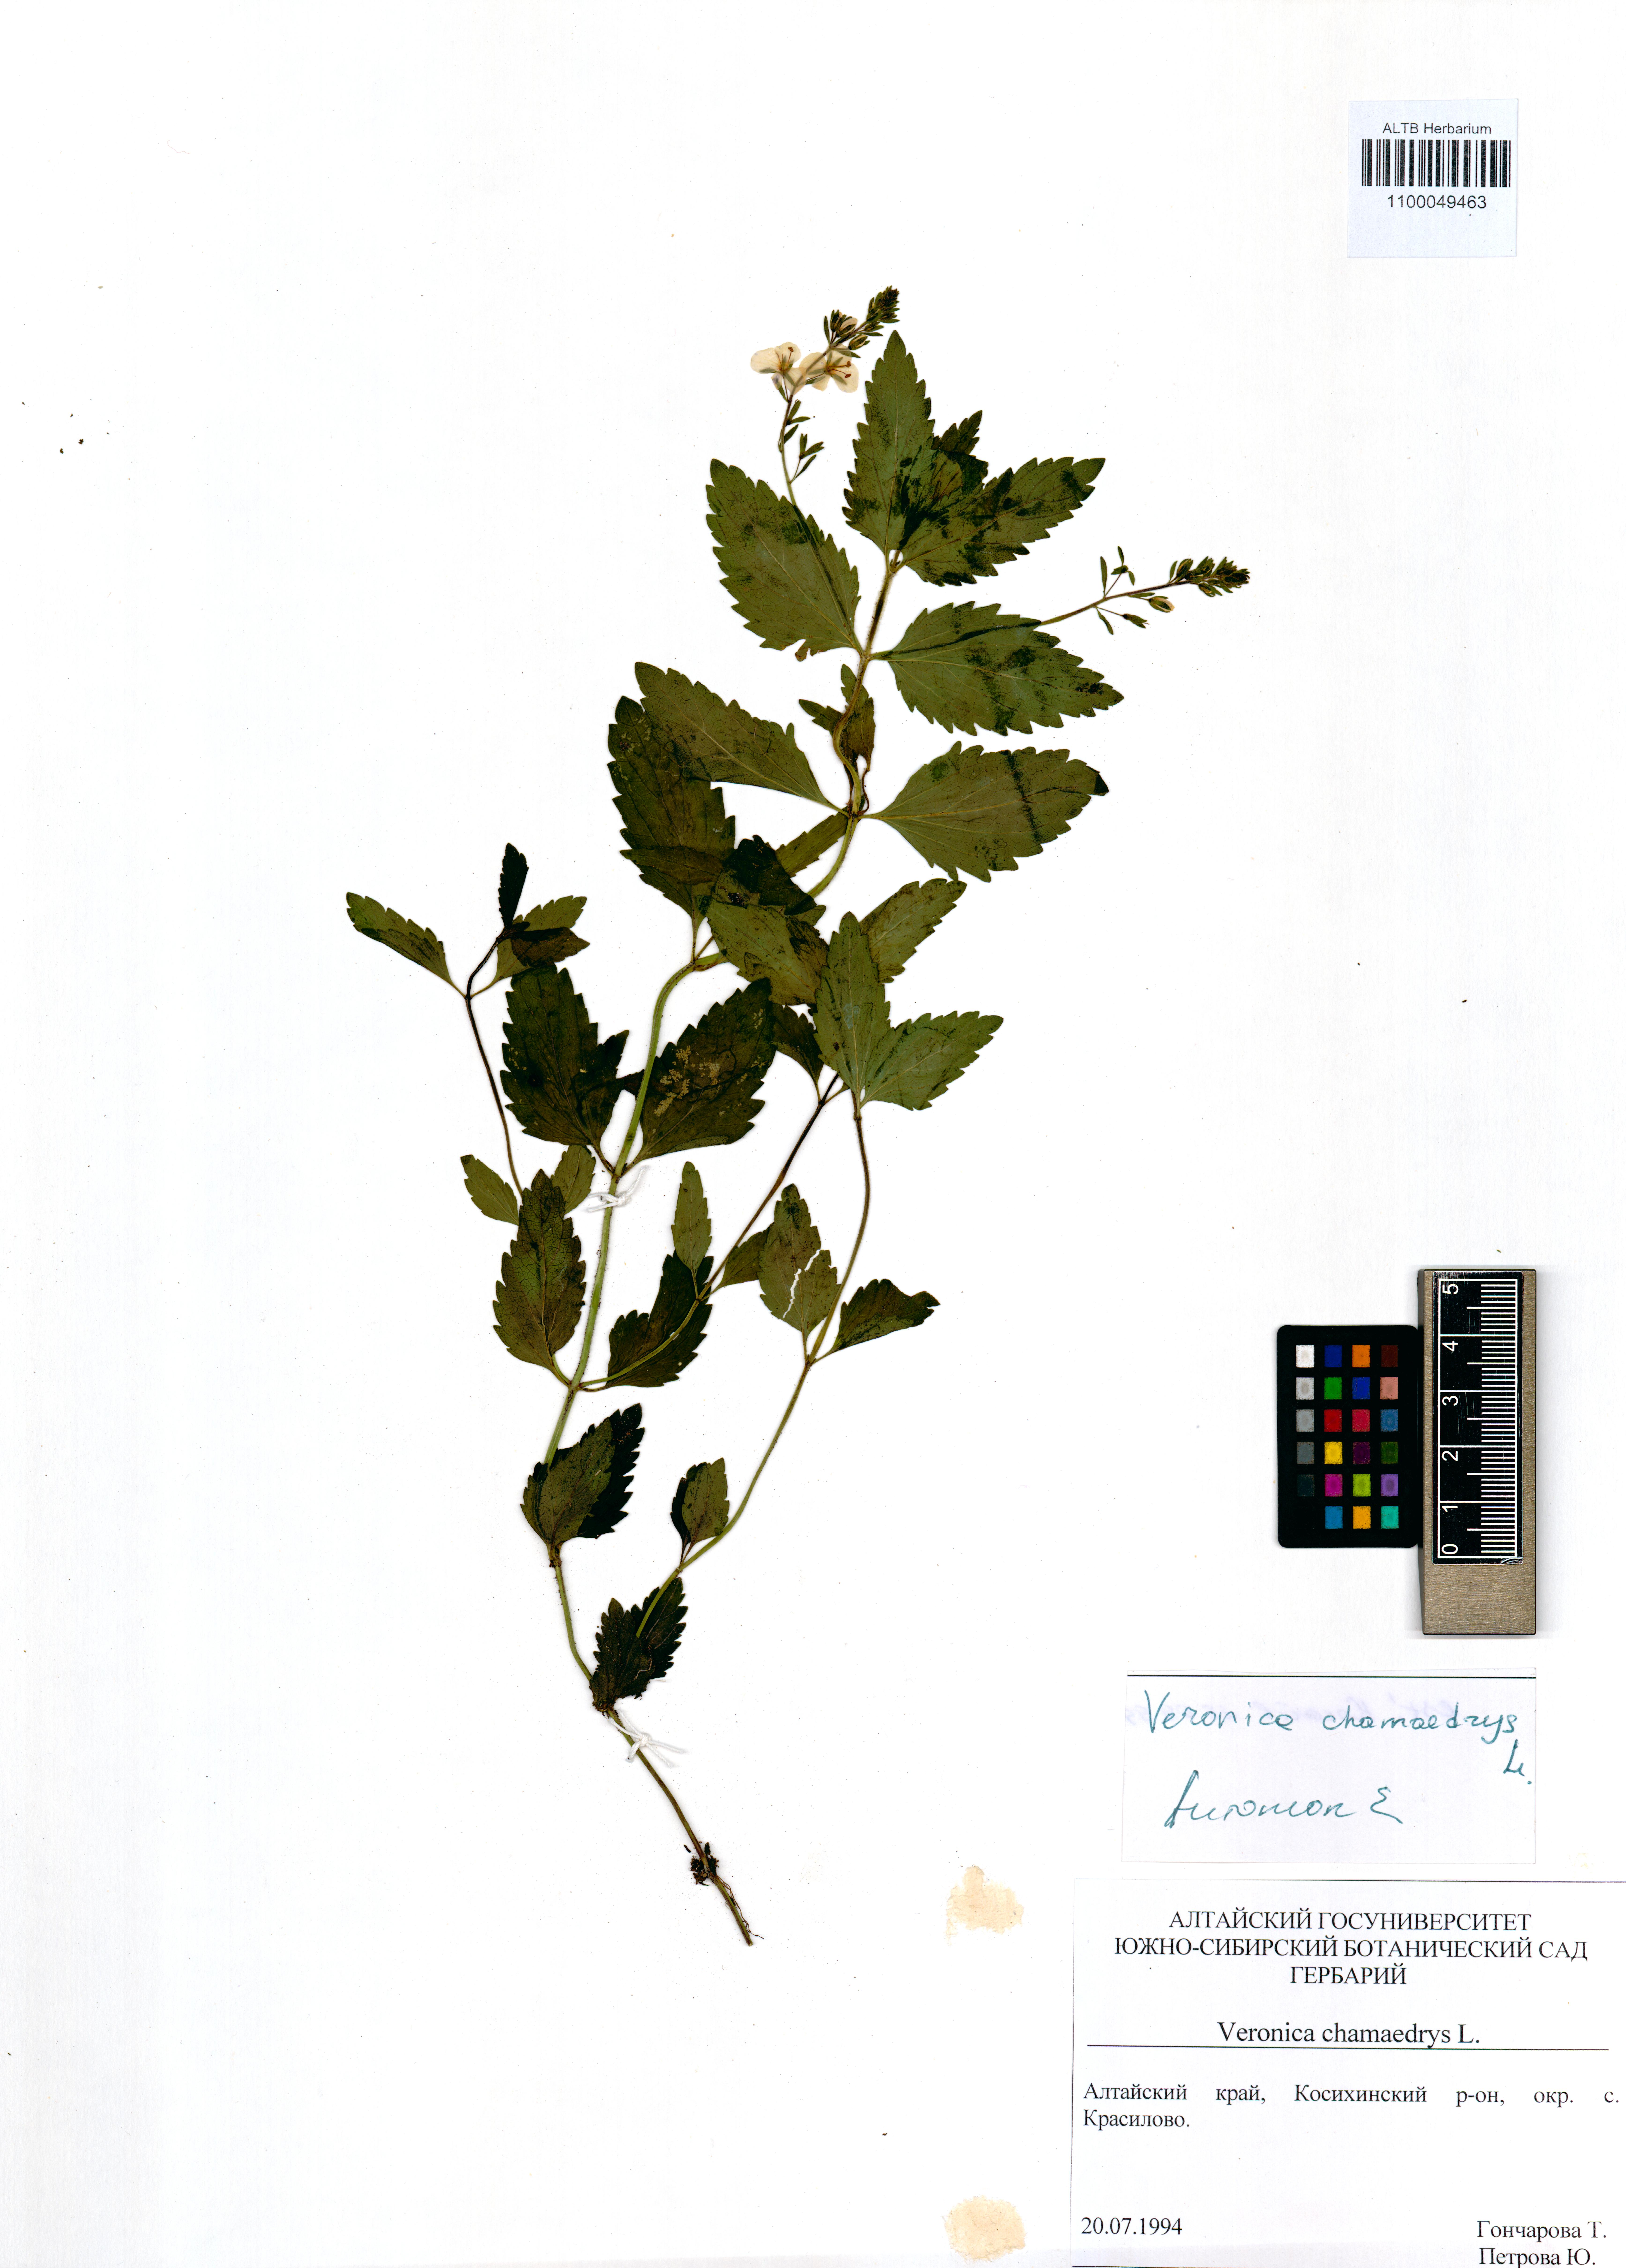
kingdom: Plantae
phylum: Tracheophyta
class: Magnoliopsida
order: Lamiales
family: Plantaginaceae
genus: Veronica
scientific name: Veronica chamaedrys
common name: Germander speedwell
